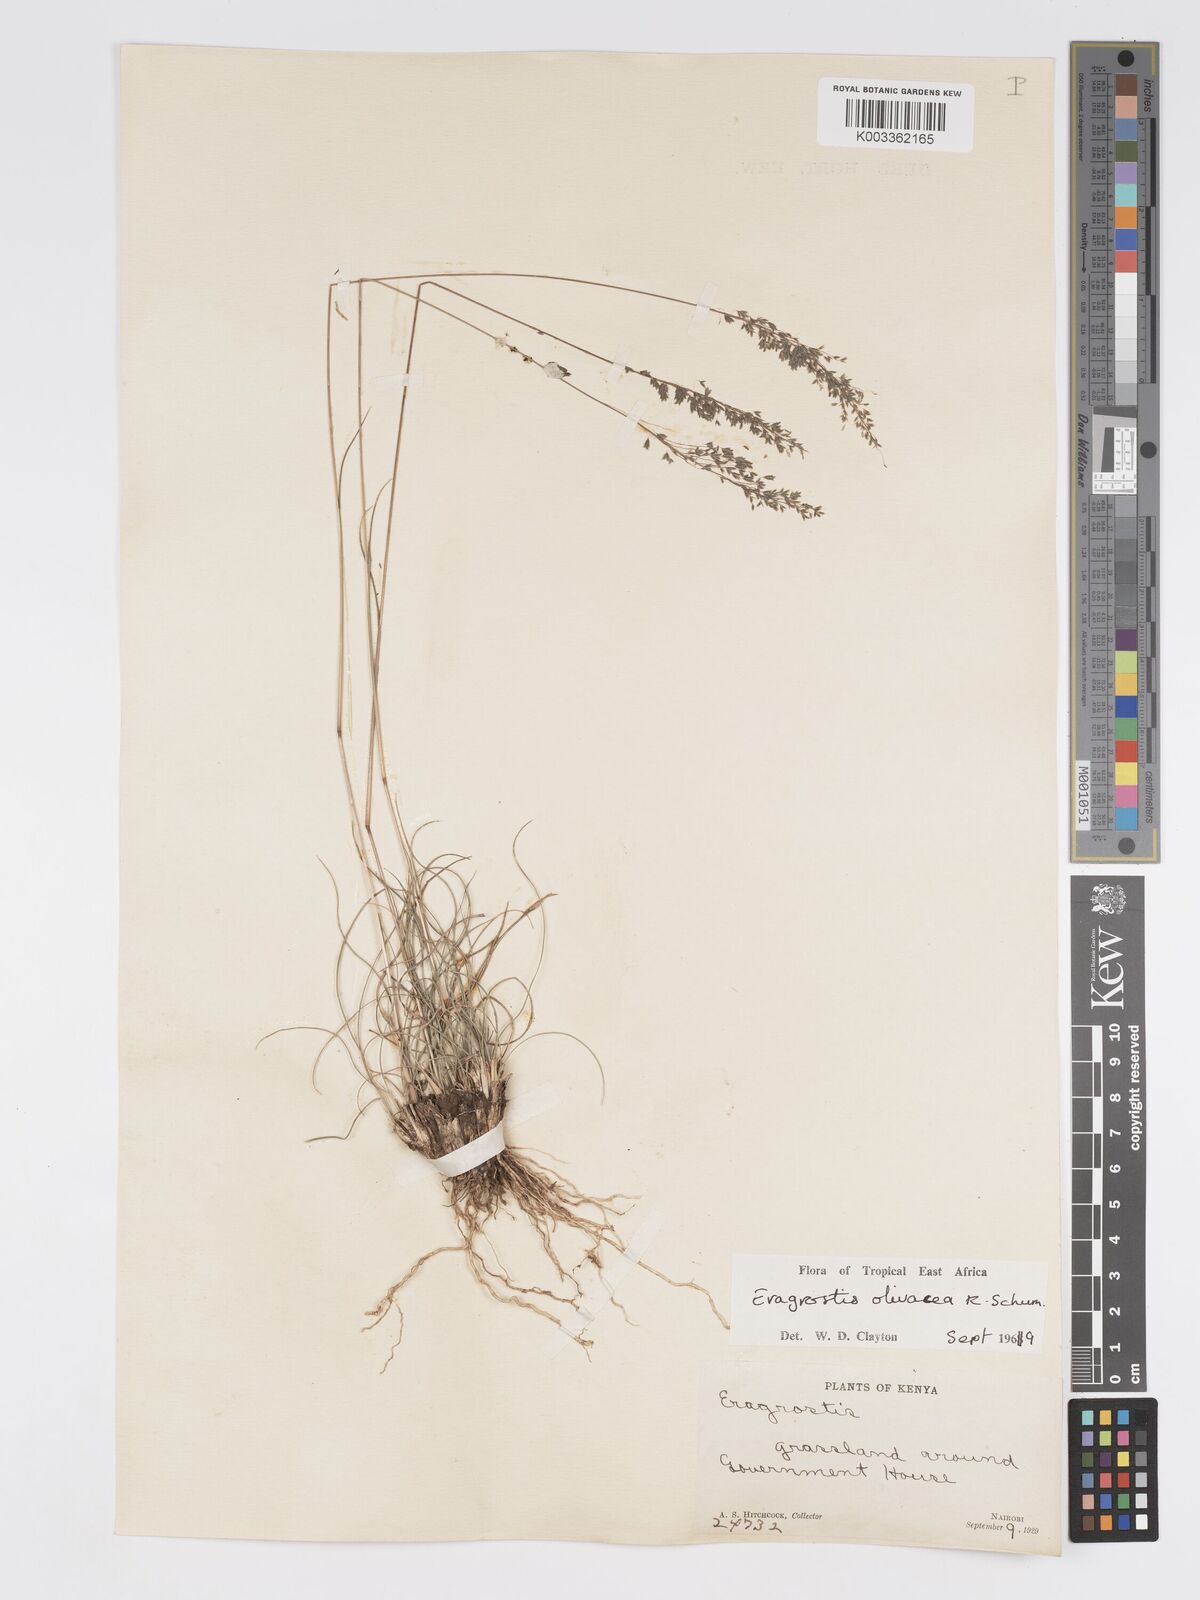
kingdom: Plantae
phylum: Tracheophyta
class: Liliopsida
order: Poales
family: Poaceae
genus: Eragrostis
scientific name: Eragrostis olivacea
